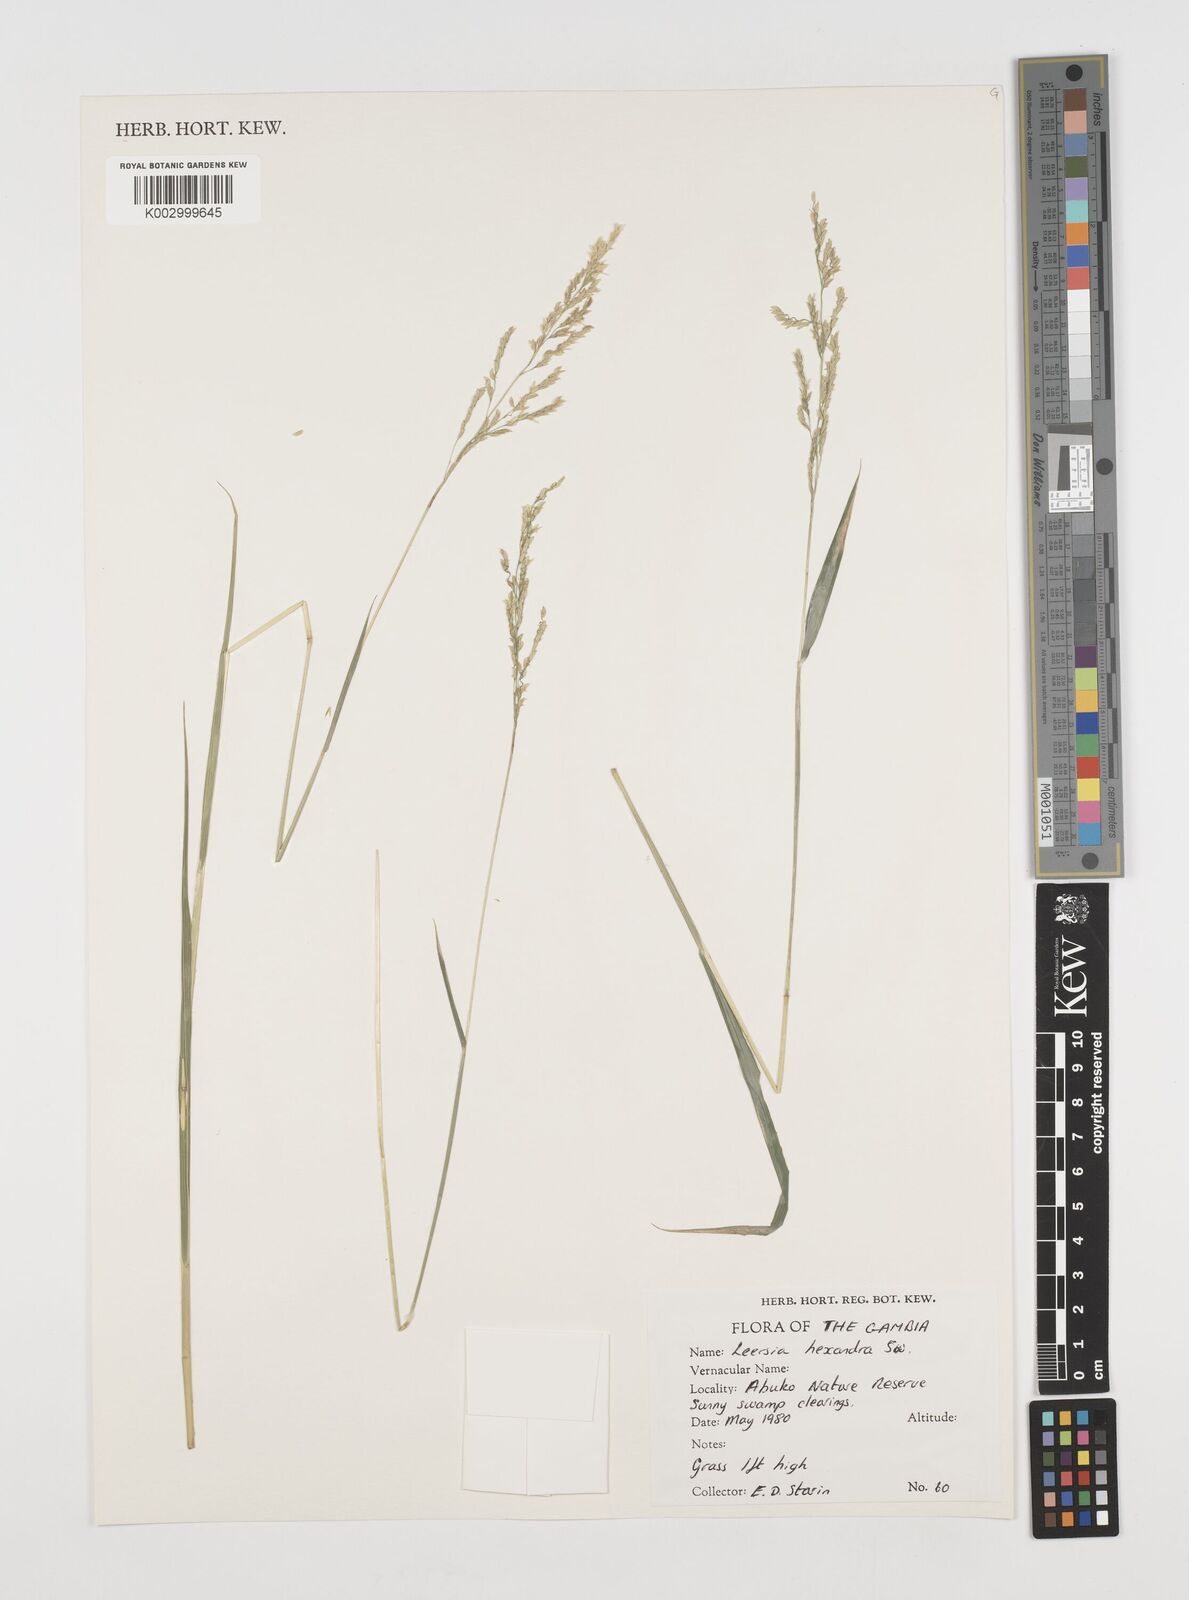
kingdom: Plantae
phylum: Tracheophyta
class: Liliopsida
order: Poales
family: Poaceae
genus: Leersia
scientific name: Leersia hexandra
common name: Southern cut grass
